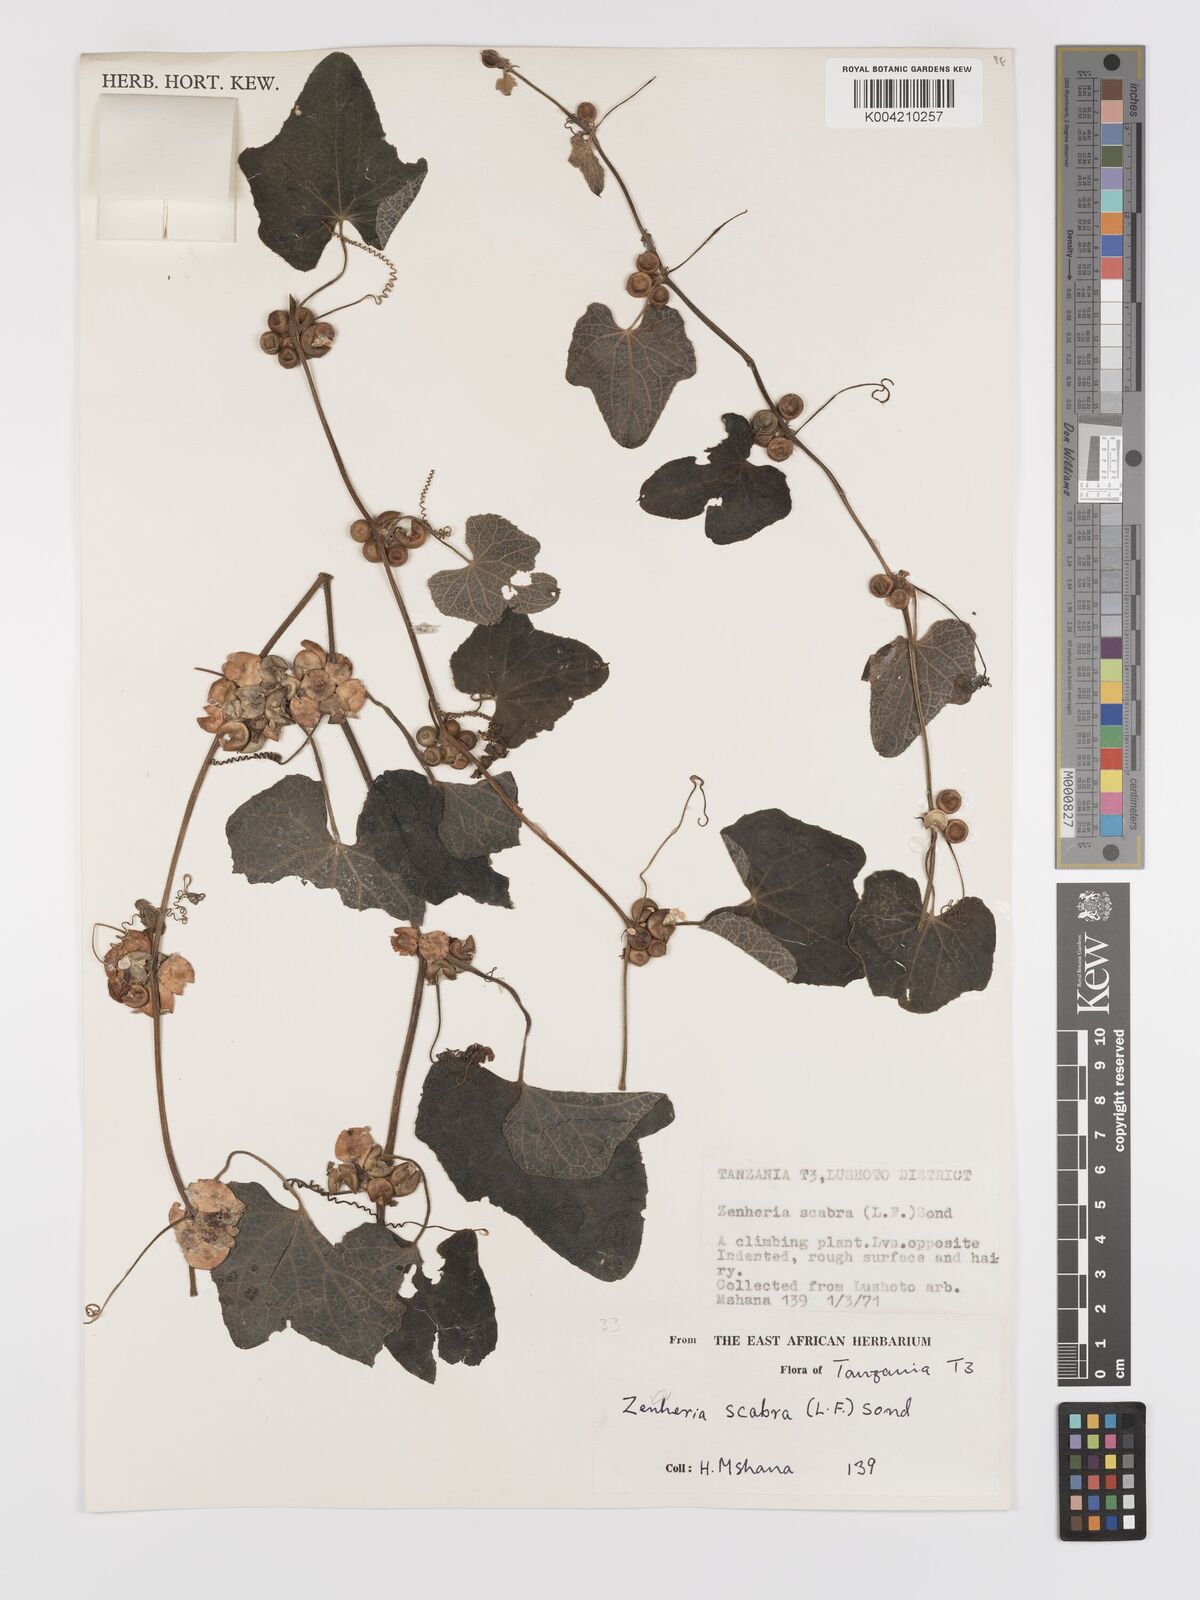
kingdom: Plantae
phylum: Tracheophyta
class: Magnoliopsida
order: Cucurbitales
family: Cucurbitaceae
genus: Zehneria
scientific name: Zehneria scabra
